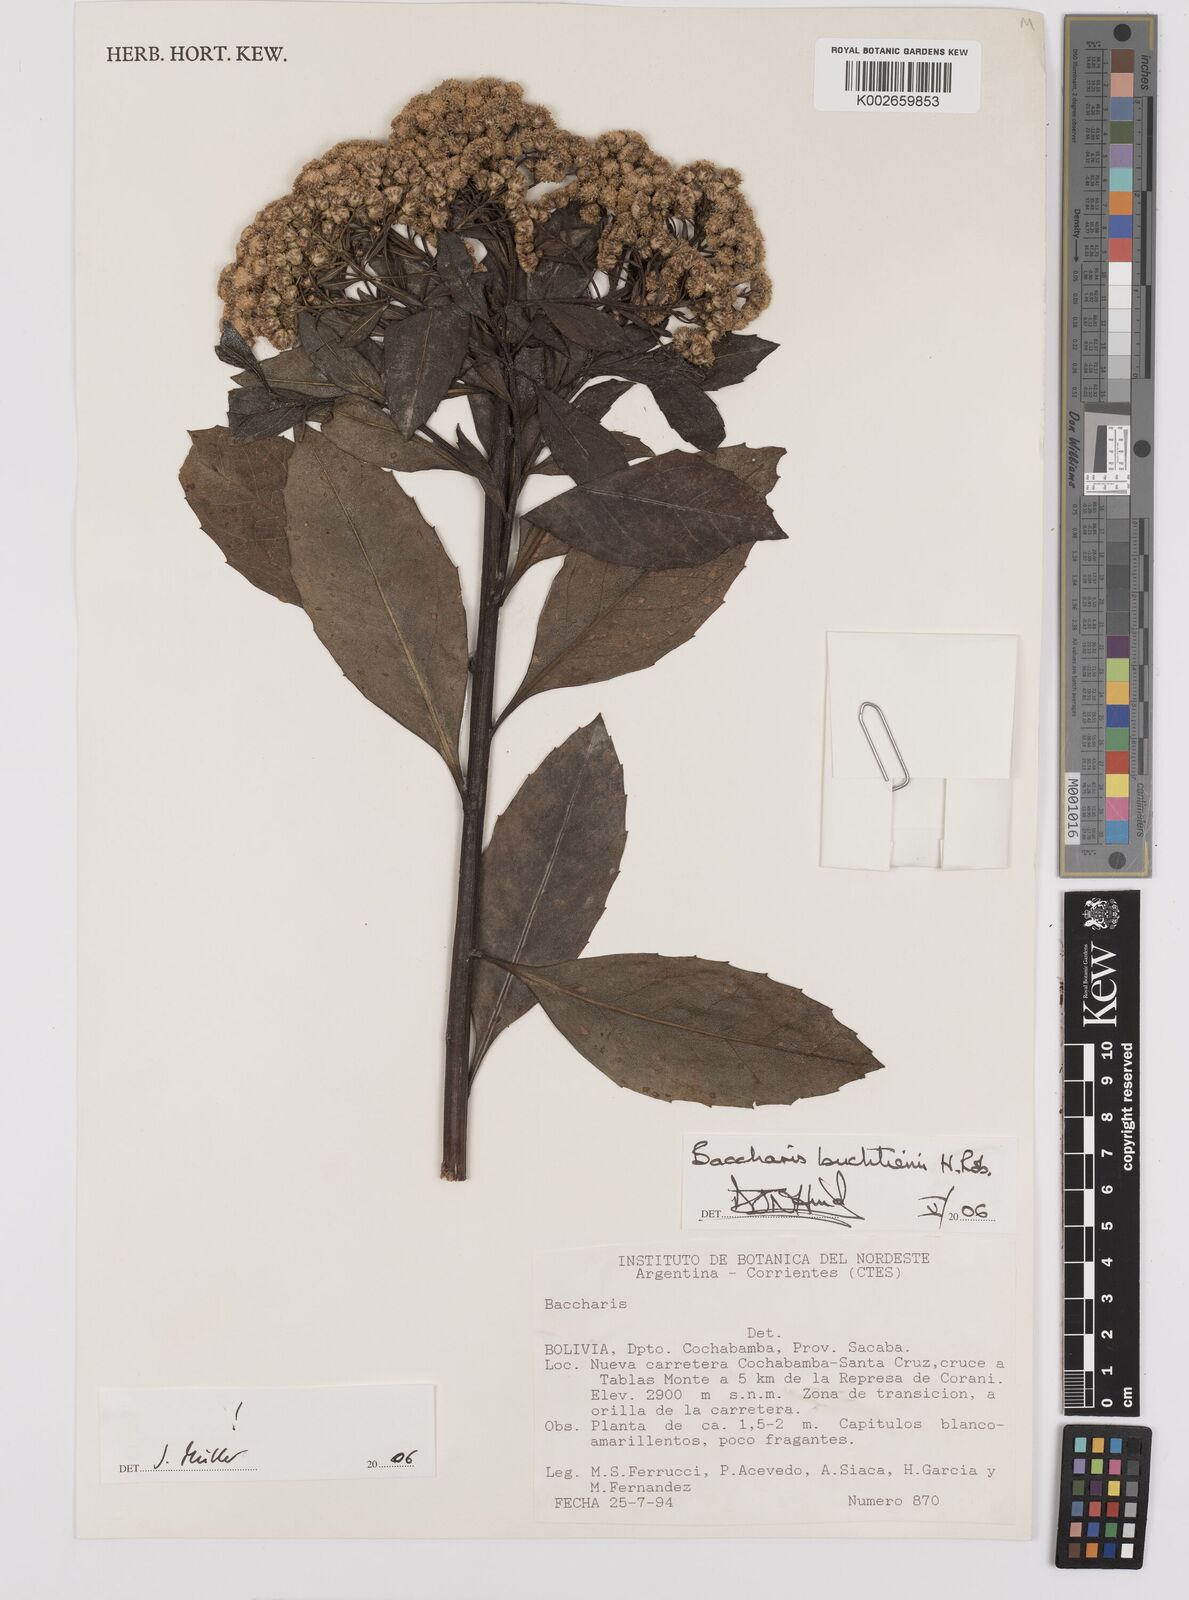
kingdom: Plantae
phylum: Tracheophyta
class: Magnoliopsida
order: Asterales
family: Asteraceae
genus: Baccharis
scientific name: Baccharis buchtienii
